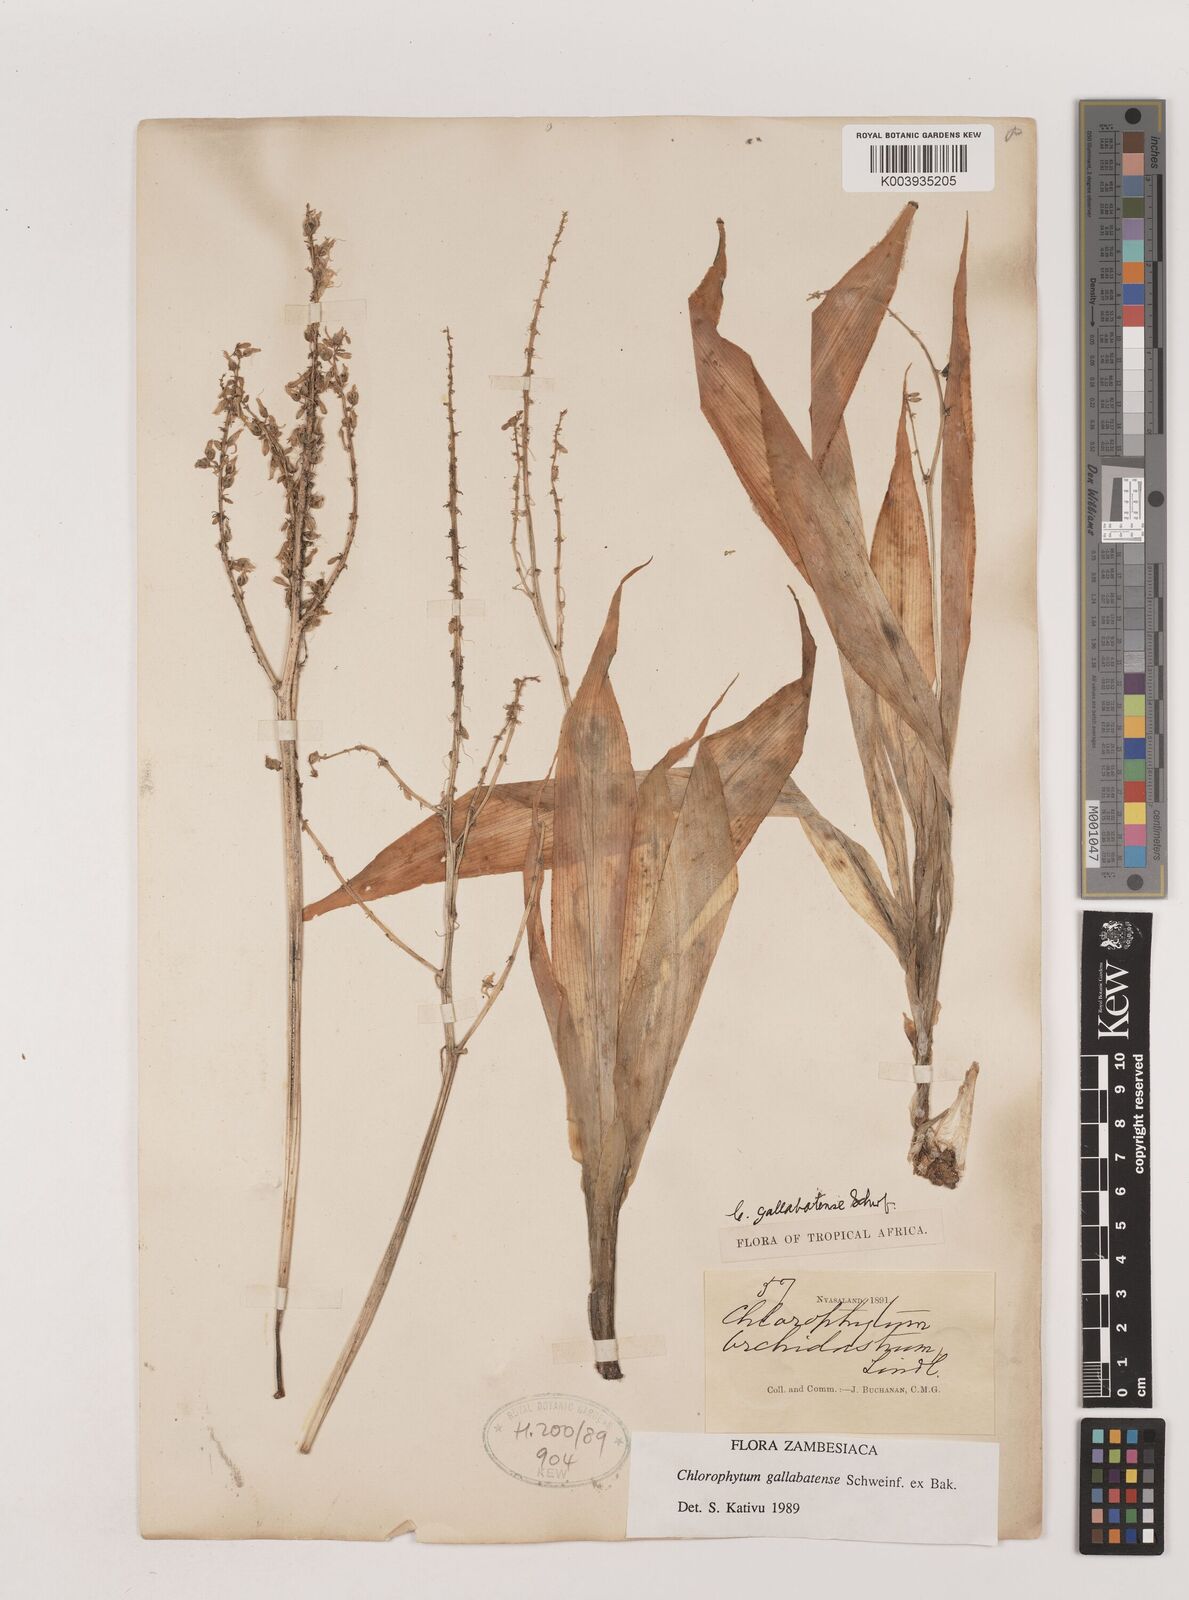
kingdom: Plantae
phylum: Tracheophyta
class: Liliopsida
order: Asparagales
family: Asparagaceae
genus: Chlorophytum
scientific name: Chlorophytum gallabatense
